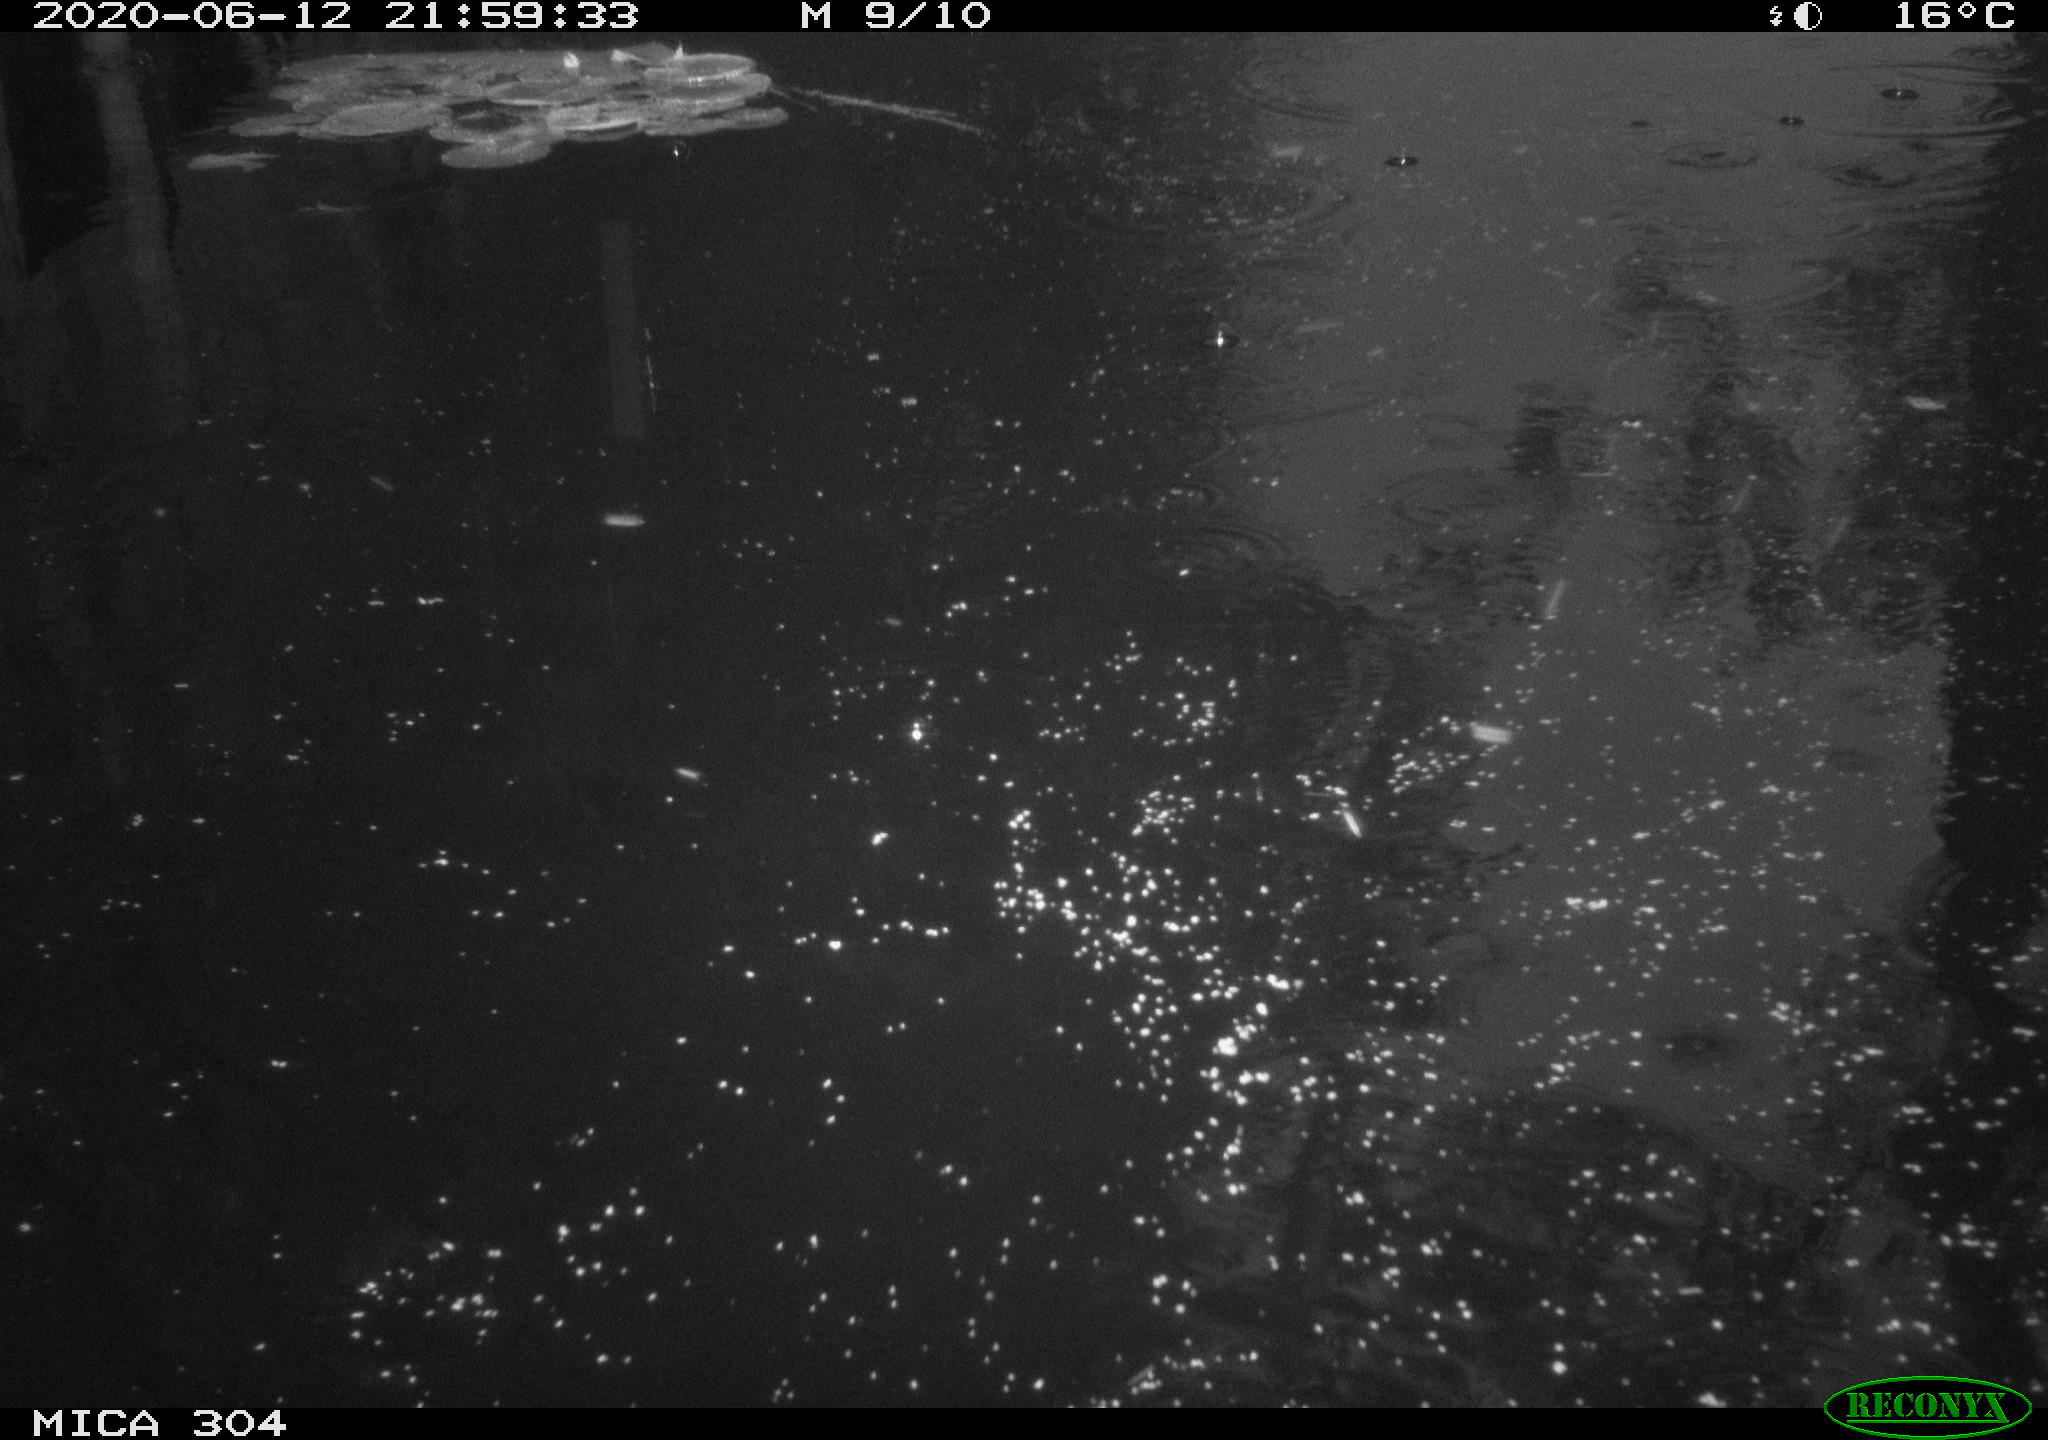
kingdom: Animalia
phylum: Chordata
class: Aves
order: Anseriformes
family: Anatidae
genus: Anas
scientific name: Anas platyrhynchos
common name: Mallard
